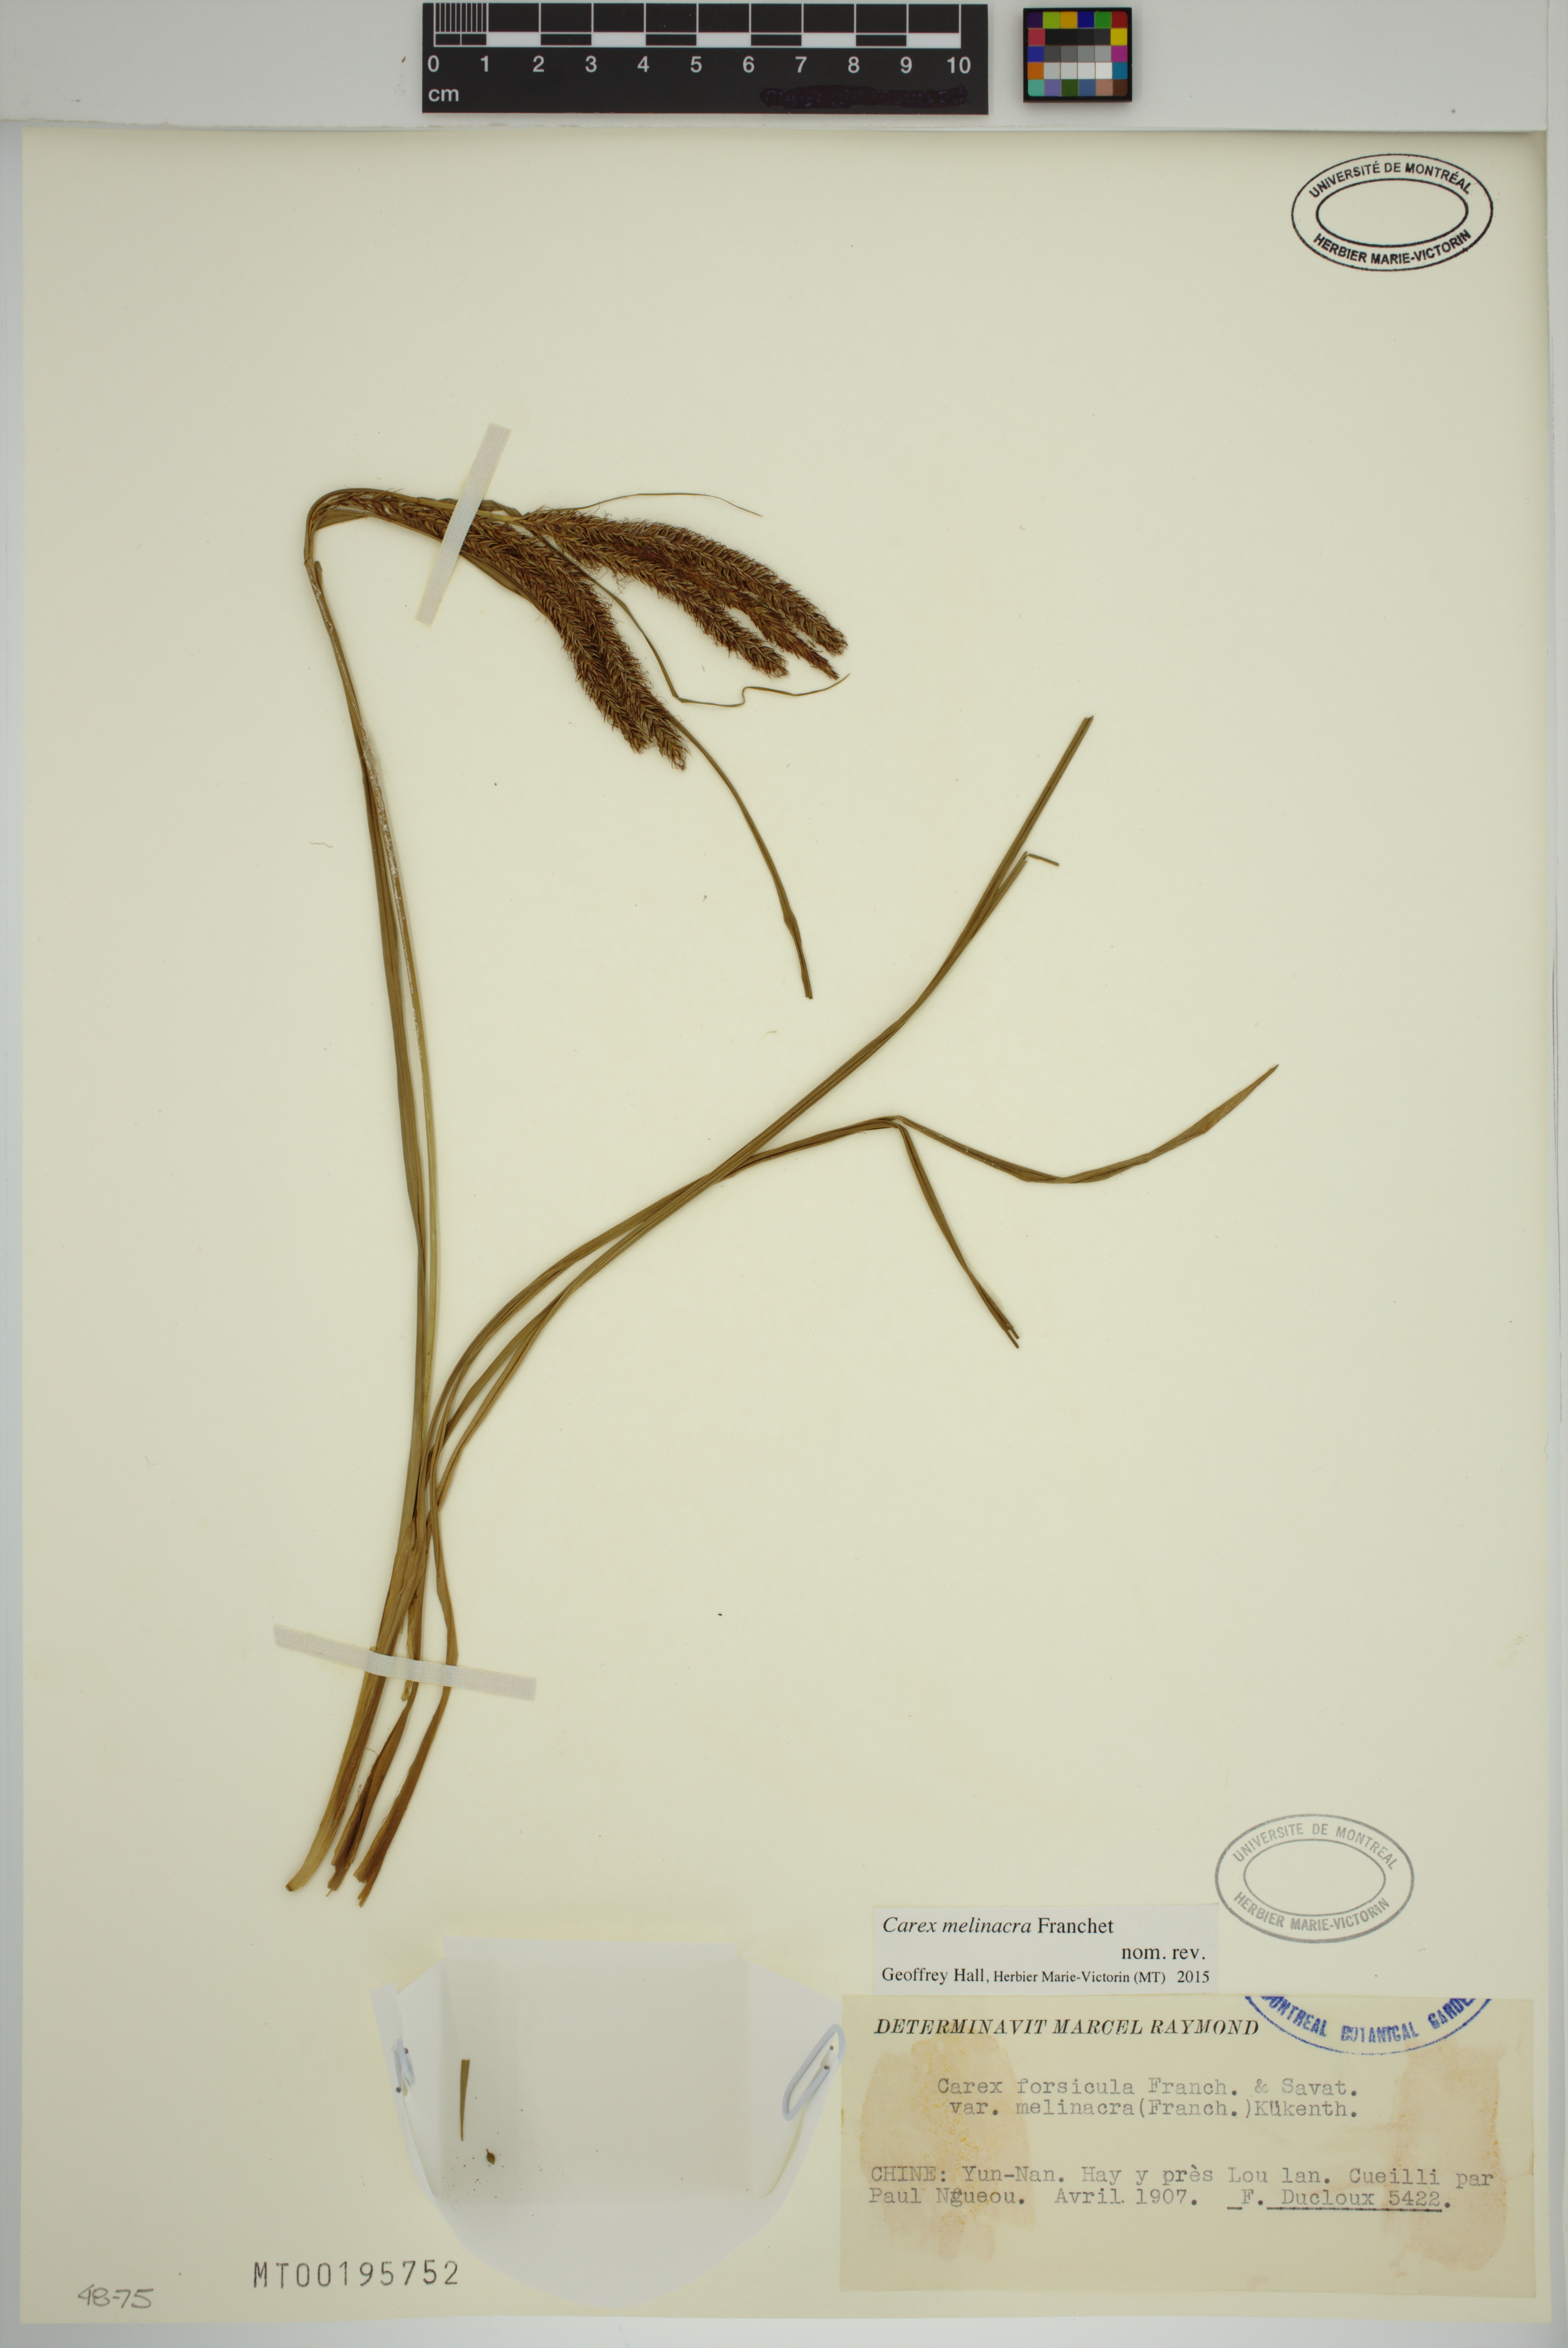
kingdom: Plantae
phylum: Tracheophyta
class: Liliopsida
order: Poales
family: Cyperaceae
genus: Carex
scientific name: Carex melinacra
